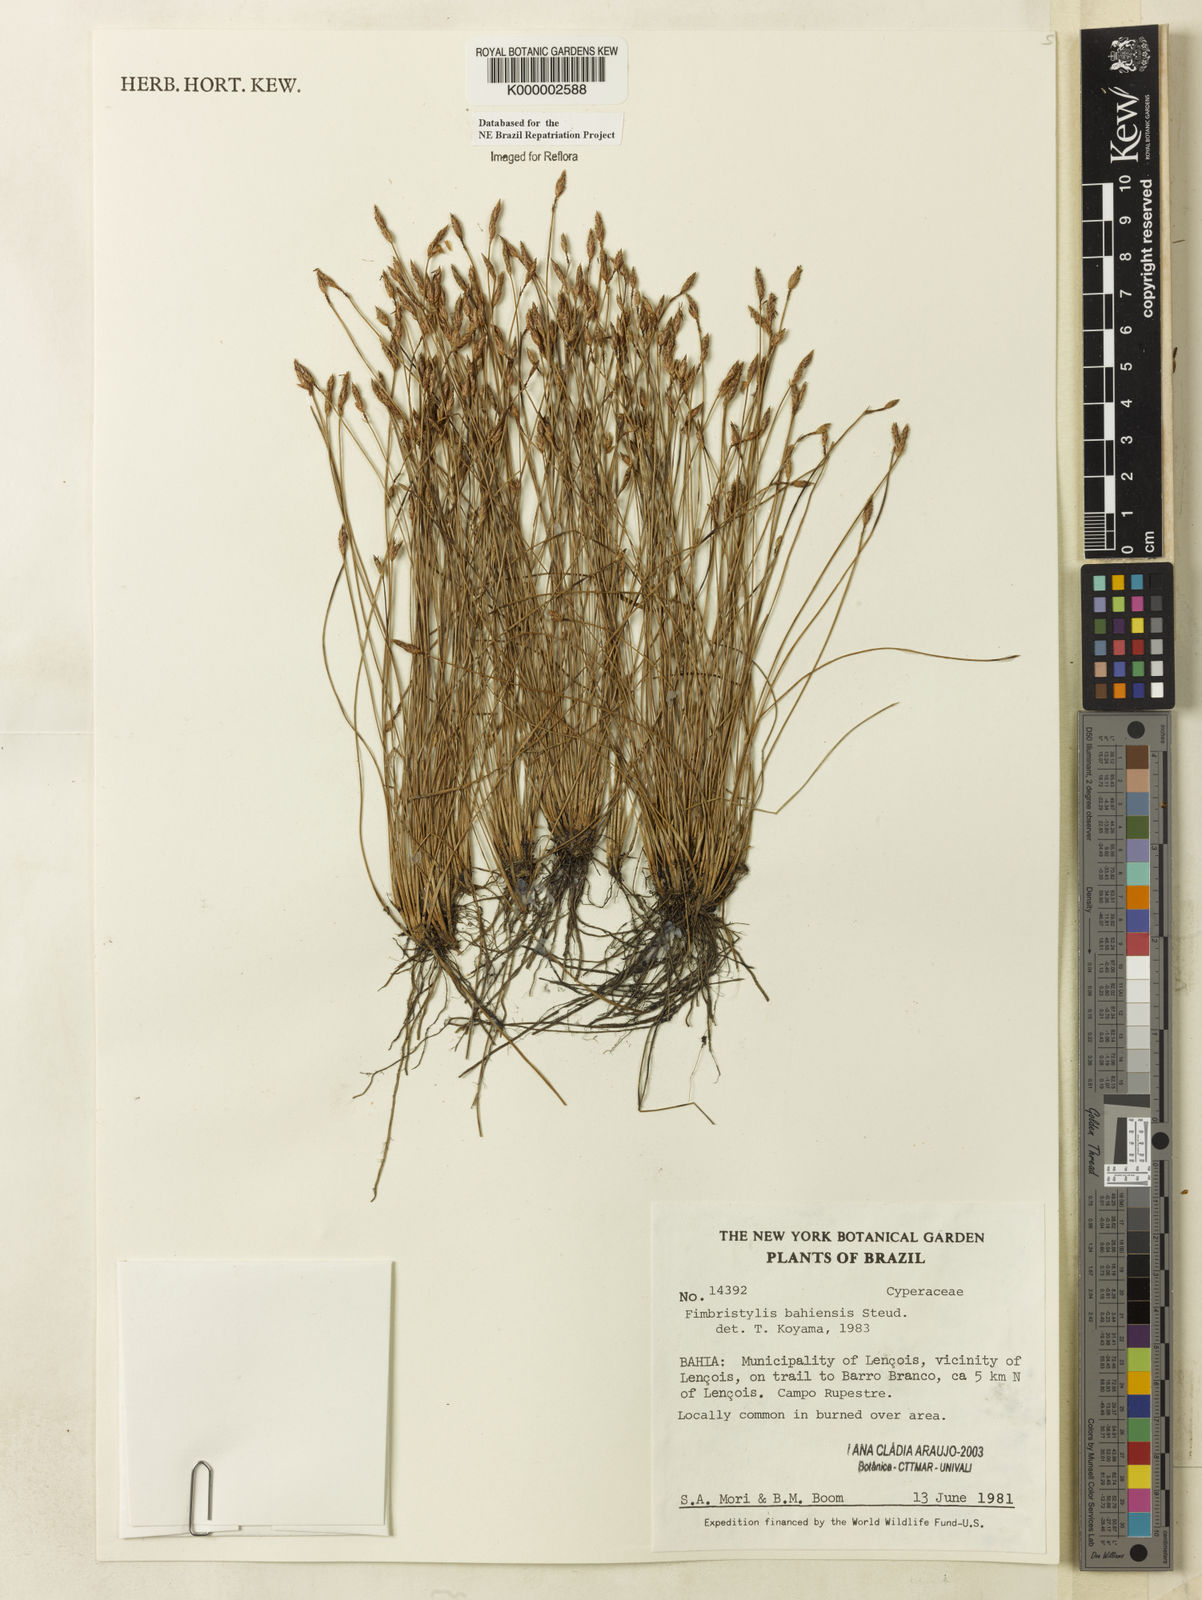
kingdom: Plantae
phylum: Tracheophyta
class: Liliopsida
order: Poales
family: Cyperaceae
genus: Fimbristylis
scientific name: Fimbristylis bahiensis
